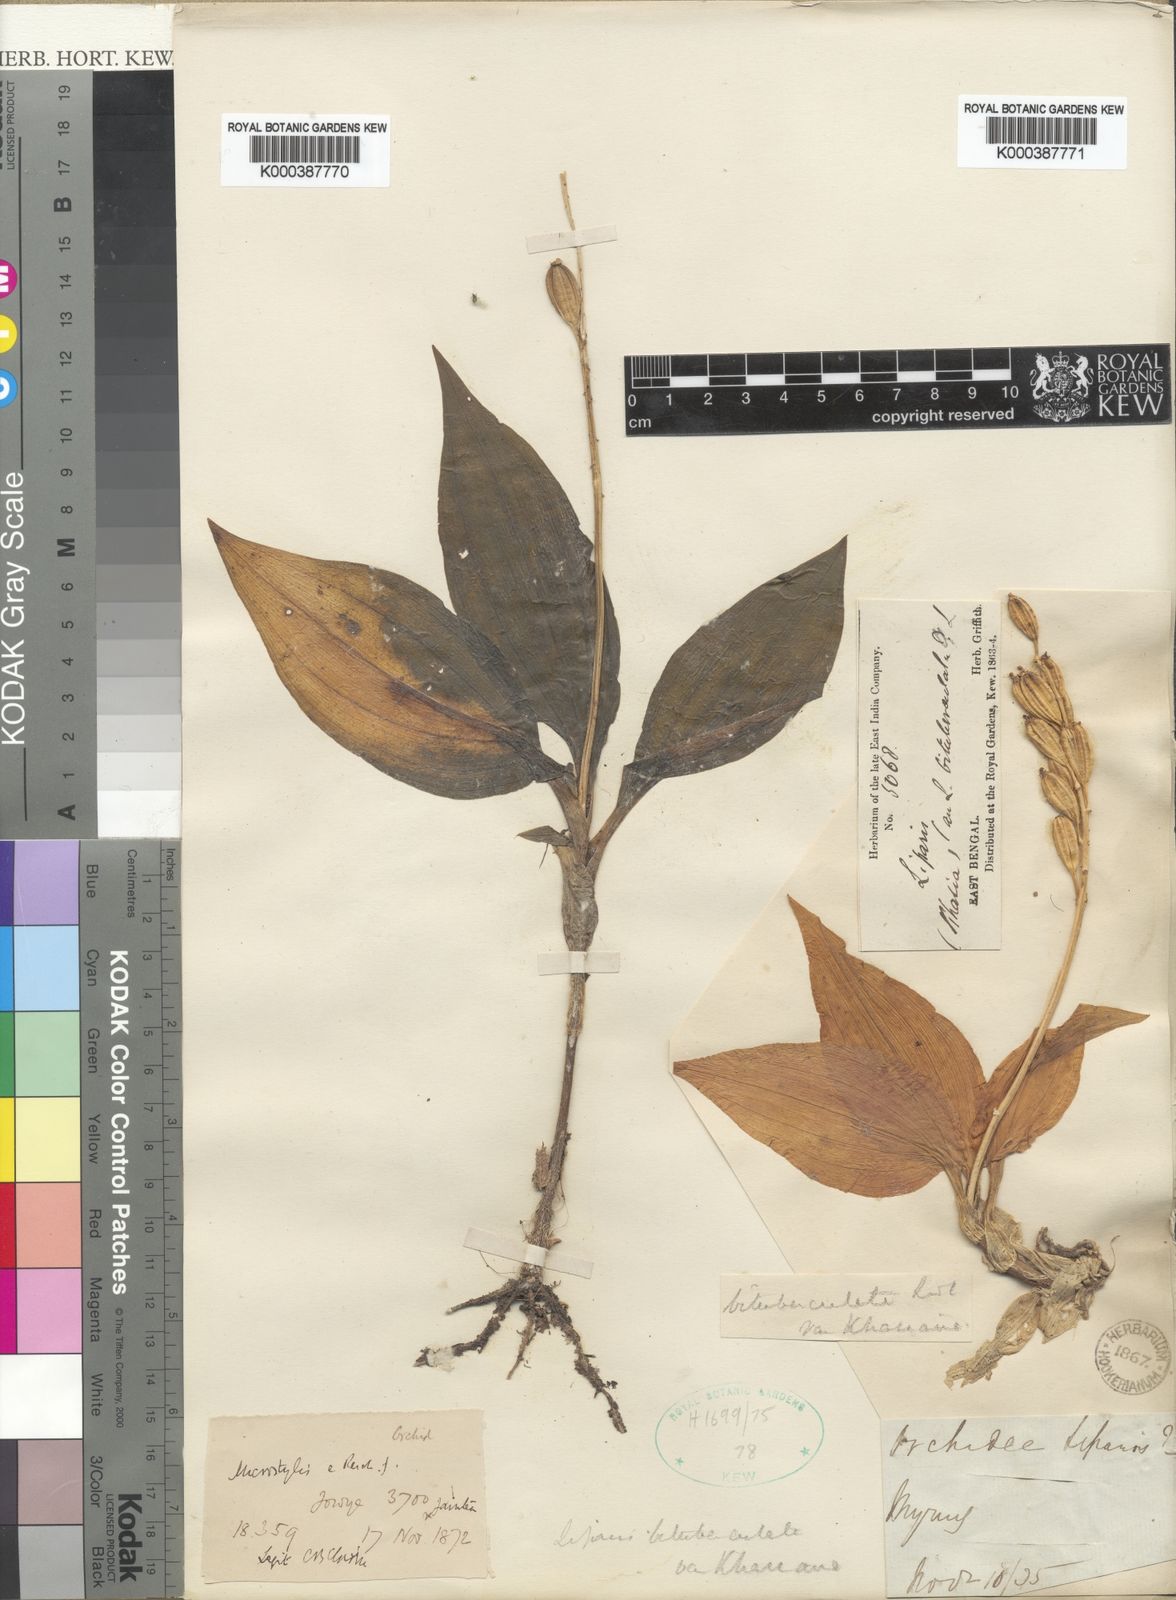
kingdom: Plantae
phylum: Tracheophyta
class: Liliopsida
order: Asparagales
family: Orchidaceae
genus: Liparis
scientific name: Liparis nervosa
